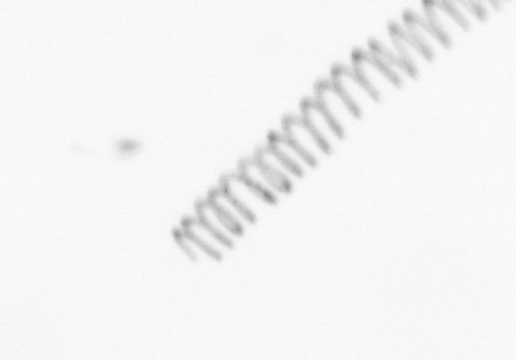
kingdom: Chromista
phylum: Ochrophyta
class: Bacillariophyceae
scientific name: Bacillariophyceae
